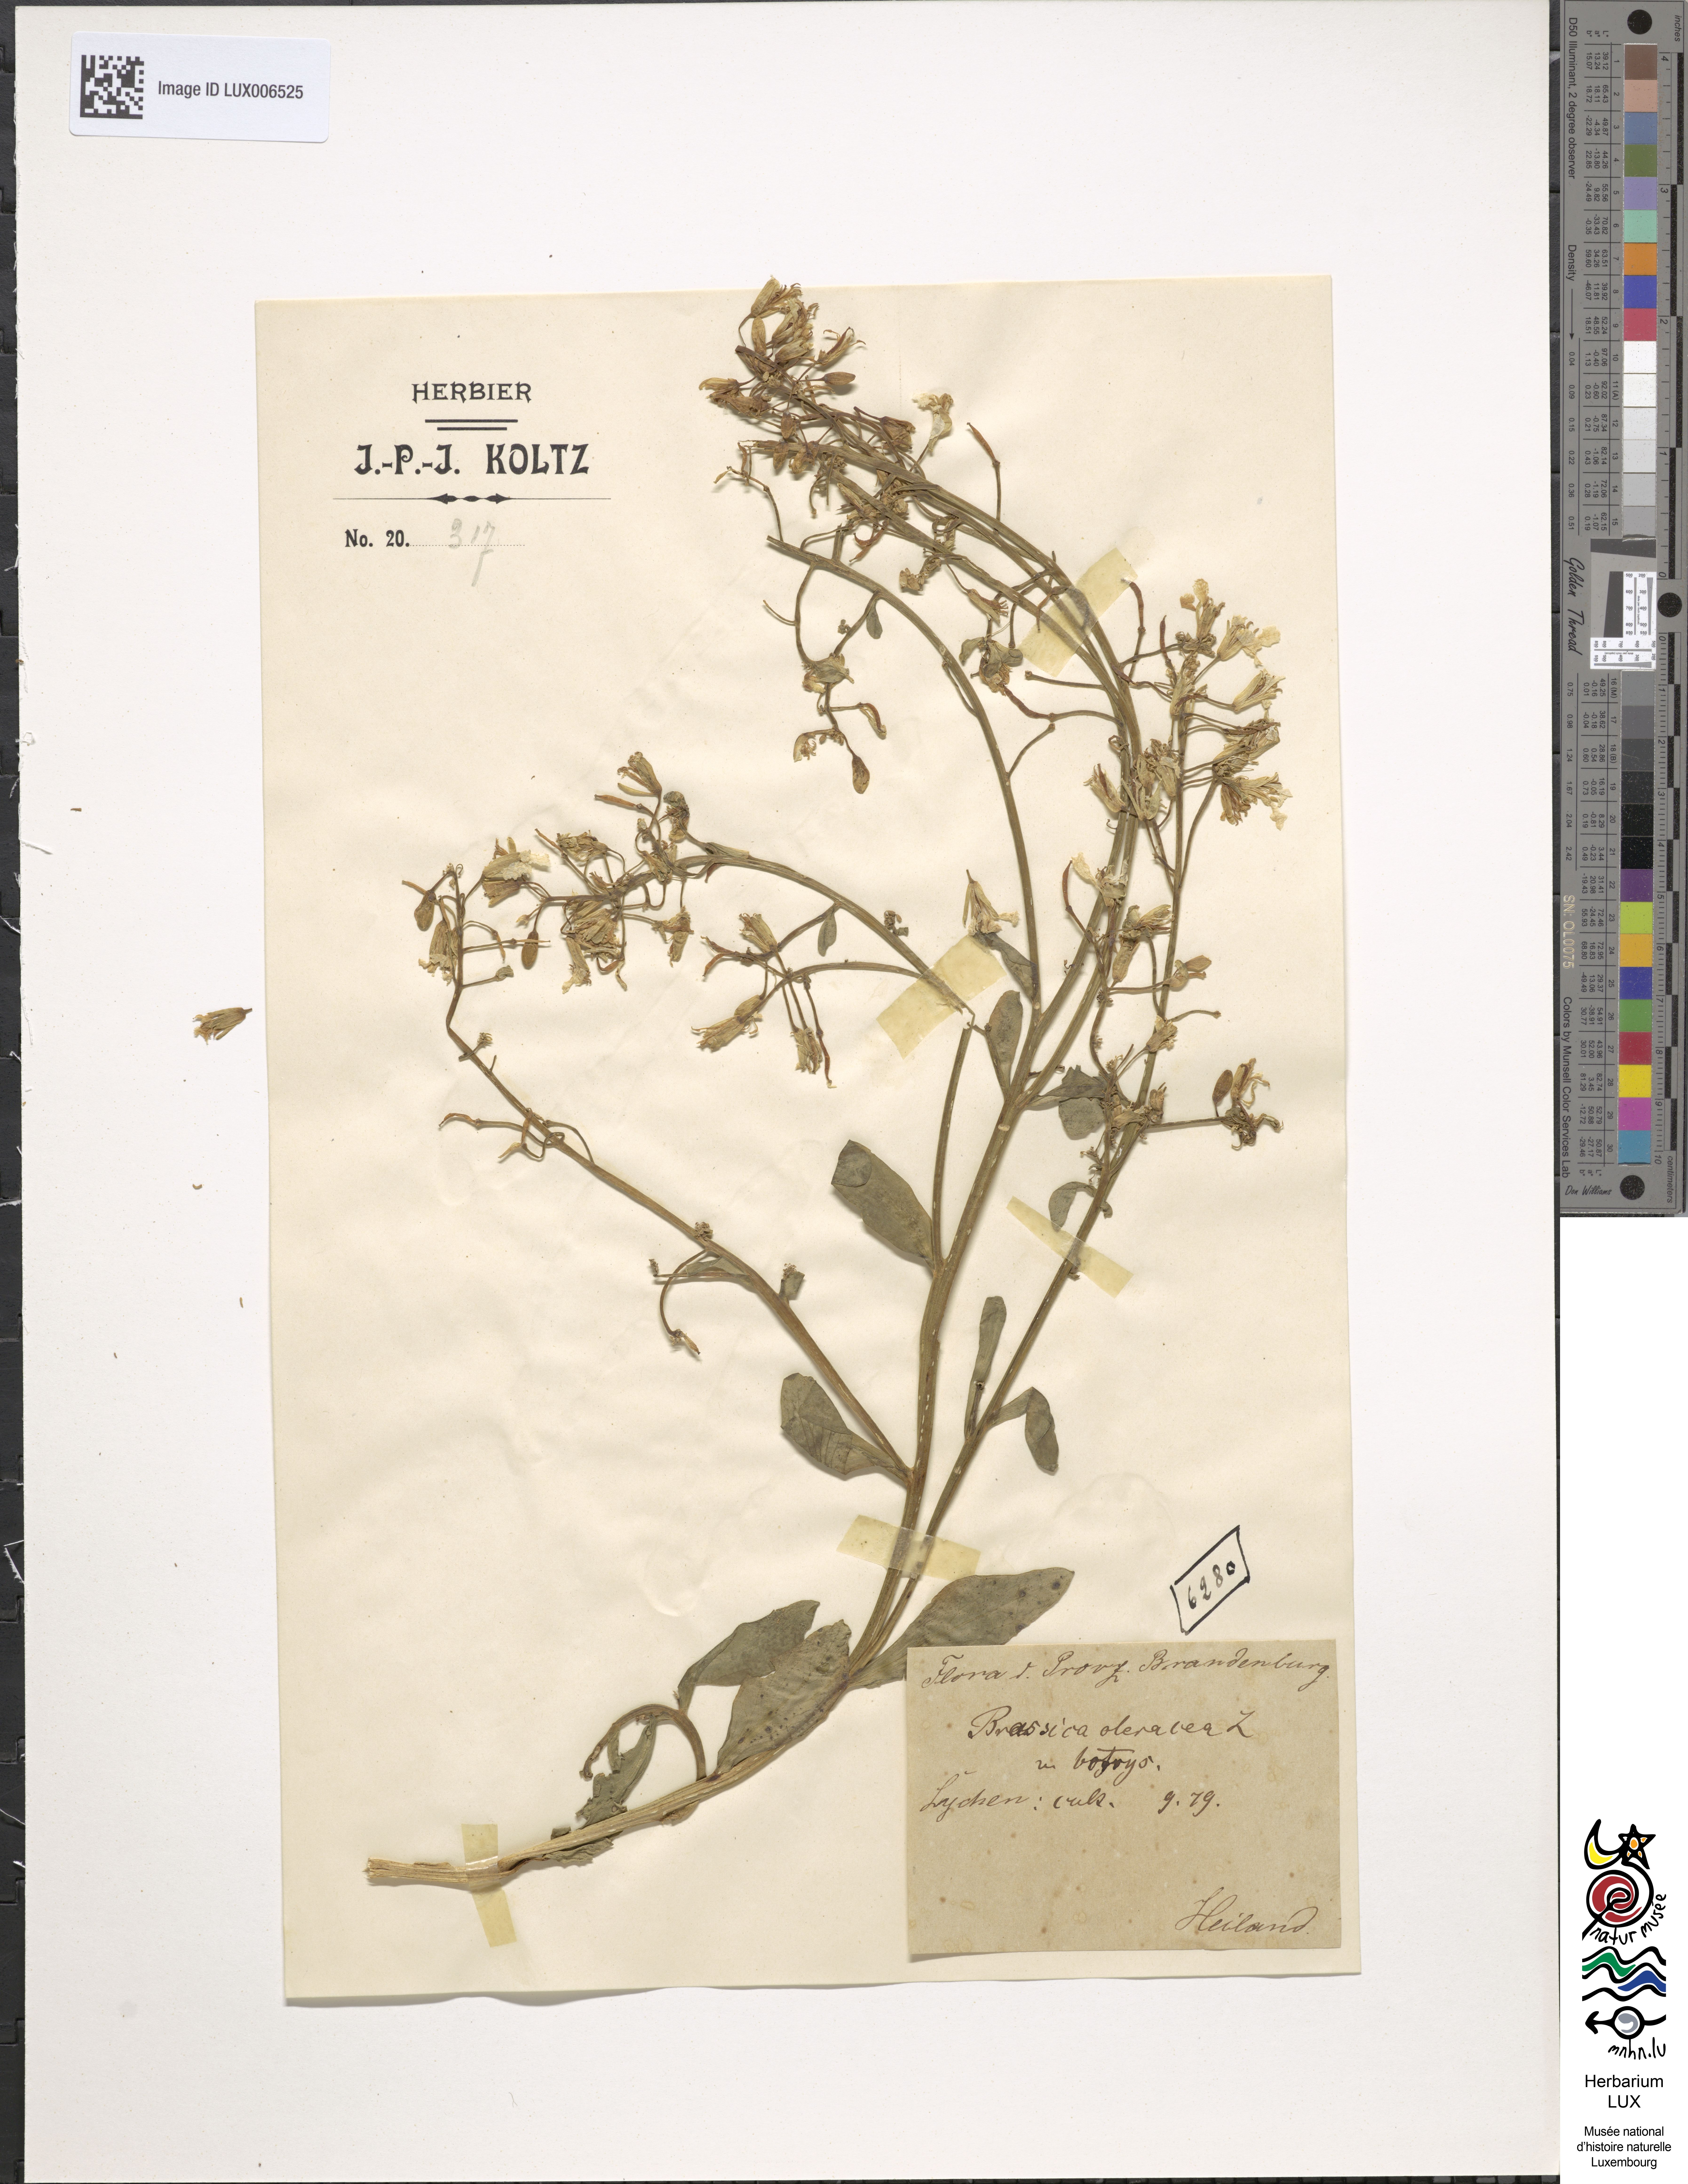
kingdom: Plantae
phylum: Tracheophyta
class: Magnoliopsida
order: Brassicales
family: Brassicaceae
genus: Brassica
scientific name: Brassica cretica
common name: Mustard
